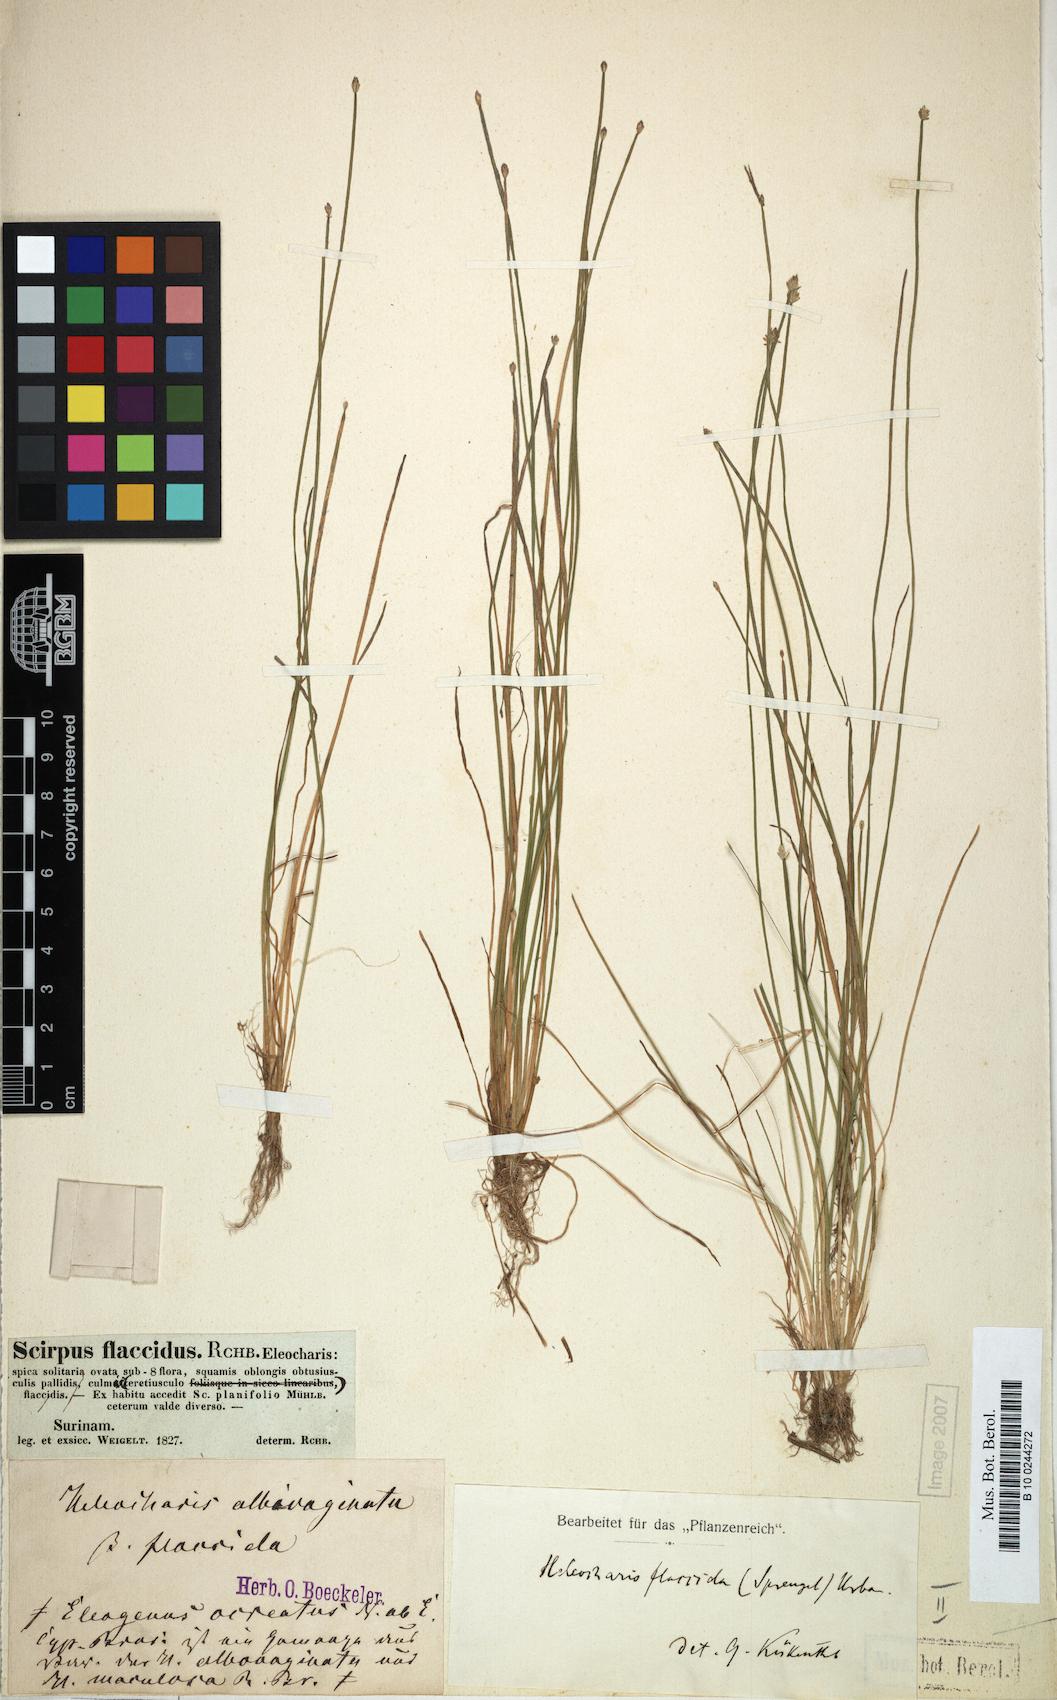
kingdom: Plantae
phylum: Tracheophyta
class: Liliopsida
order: Poales
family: Cyperaceae
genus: Eleocharis
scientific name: Eleocharis flavescens
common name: Yellow spikerush
